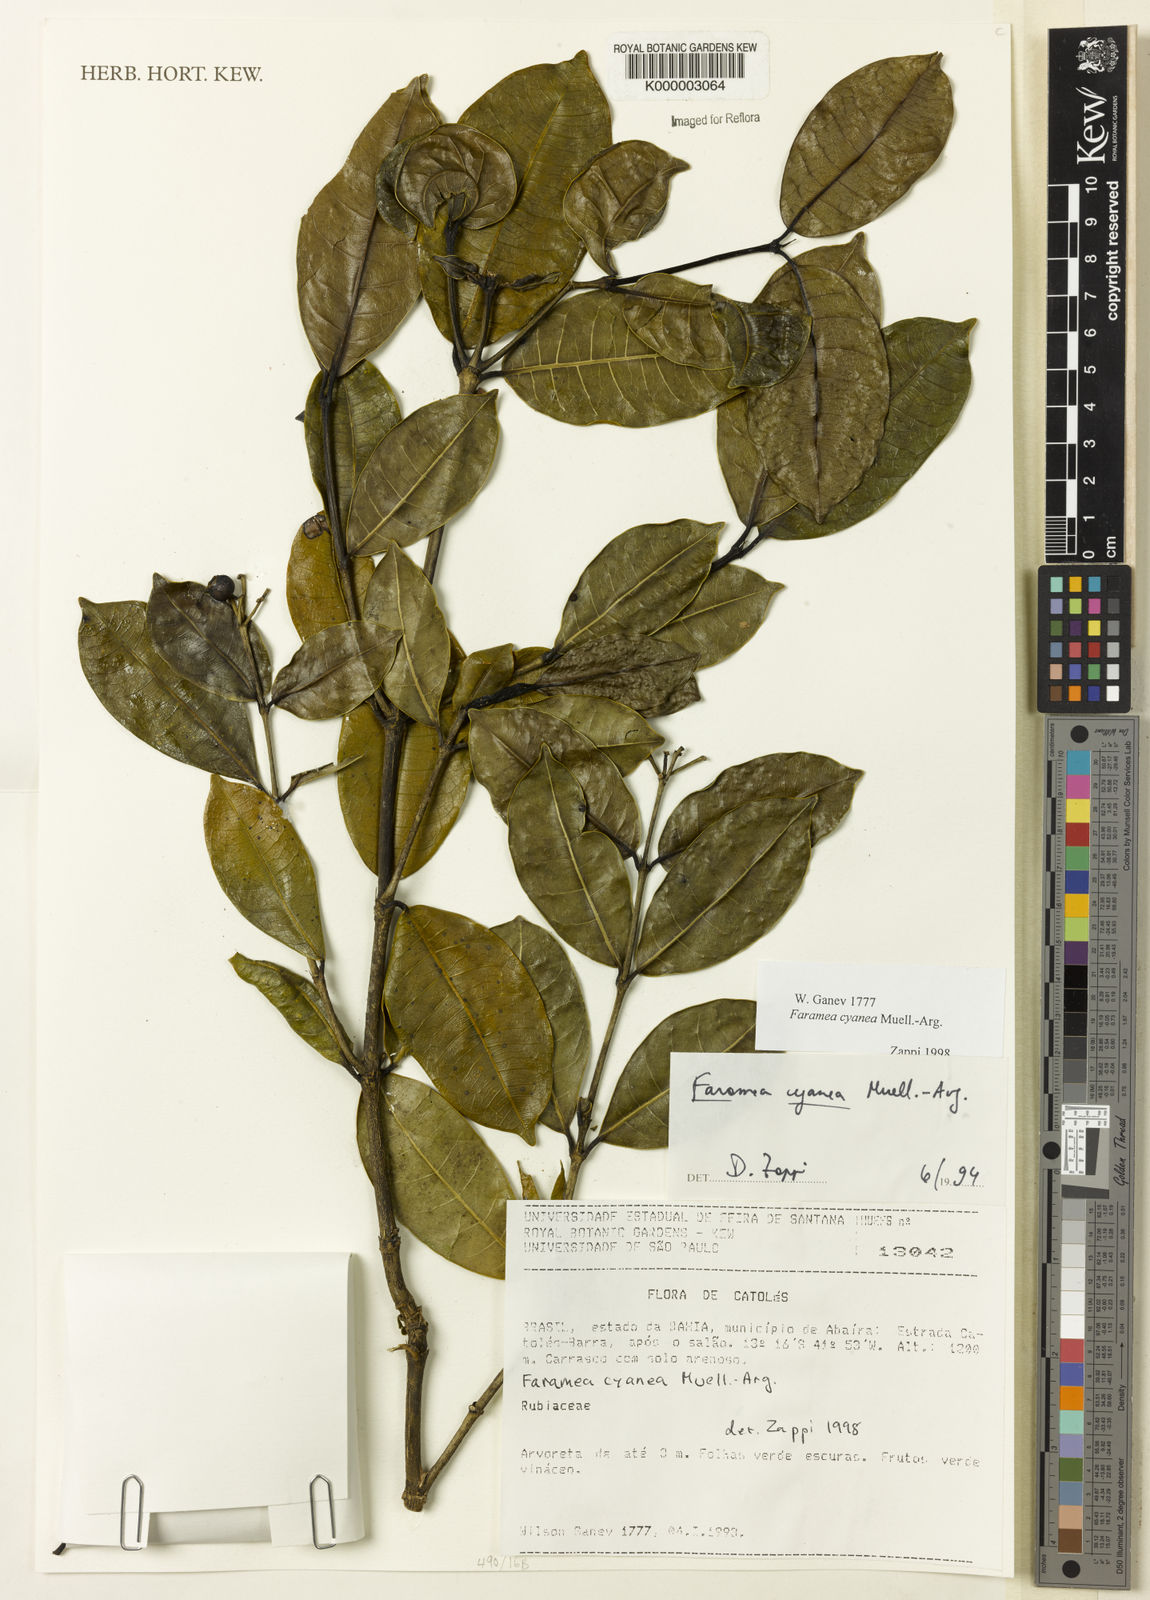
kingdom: Plantae
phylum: Tracheophyta
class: Magnoliopsida
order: Gentianales
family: Rubiaceae
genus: Faramea
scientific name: Faramea occidentalis
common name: False coffee
